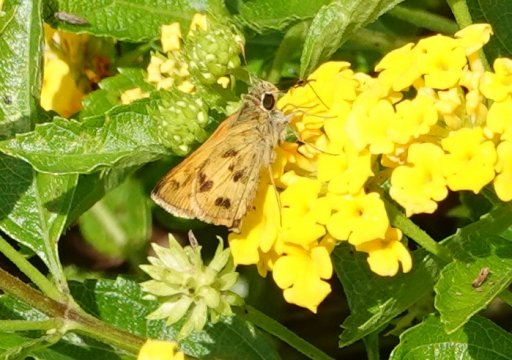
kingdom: Animalia
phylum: Arthropoda
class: Insecta
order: Lepidoptera
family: Hesperiidae
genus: Polites
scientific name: Polites vibex
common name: Whirlabout
